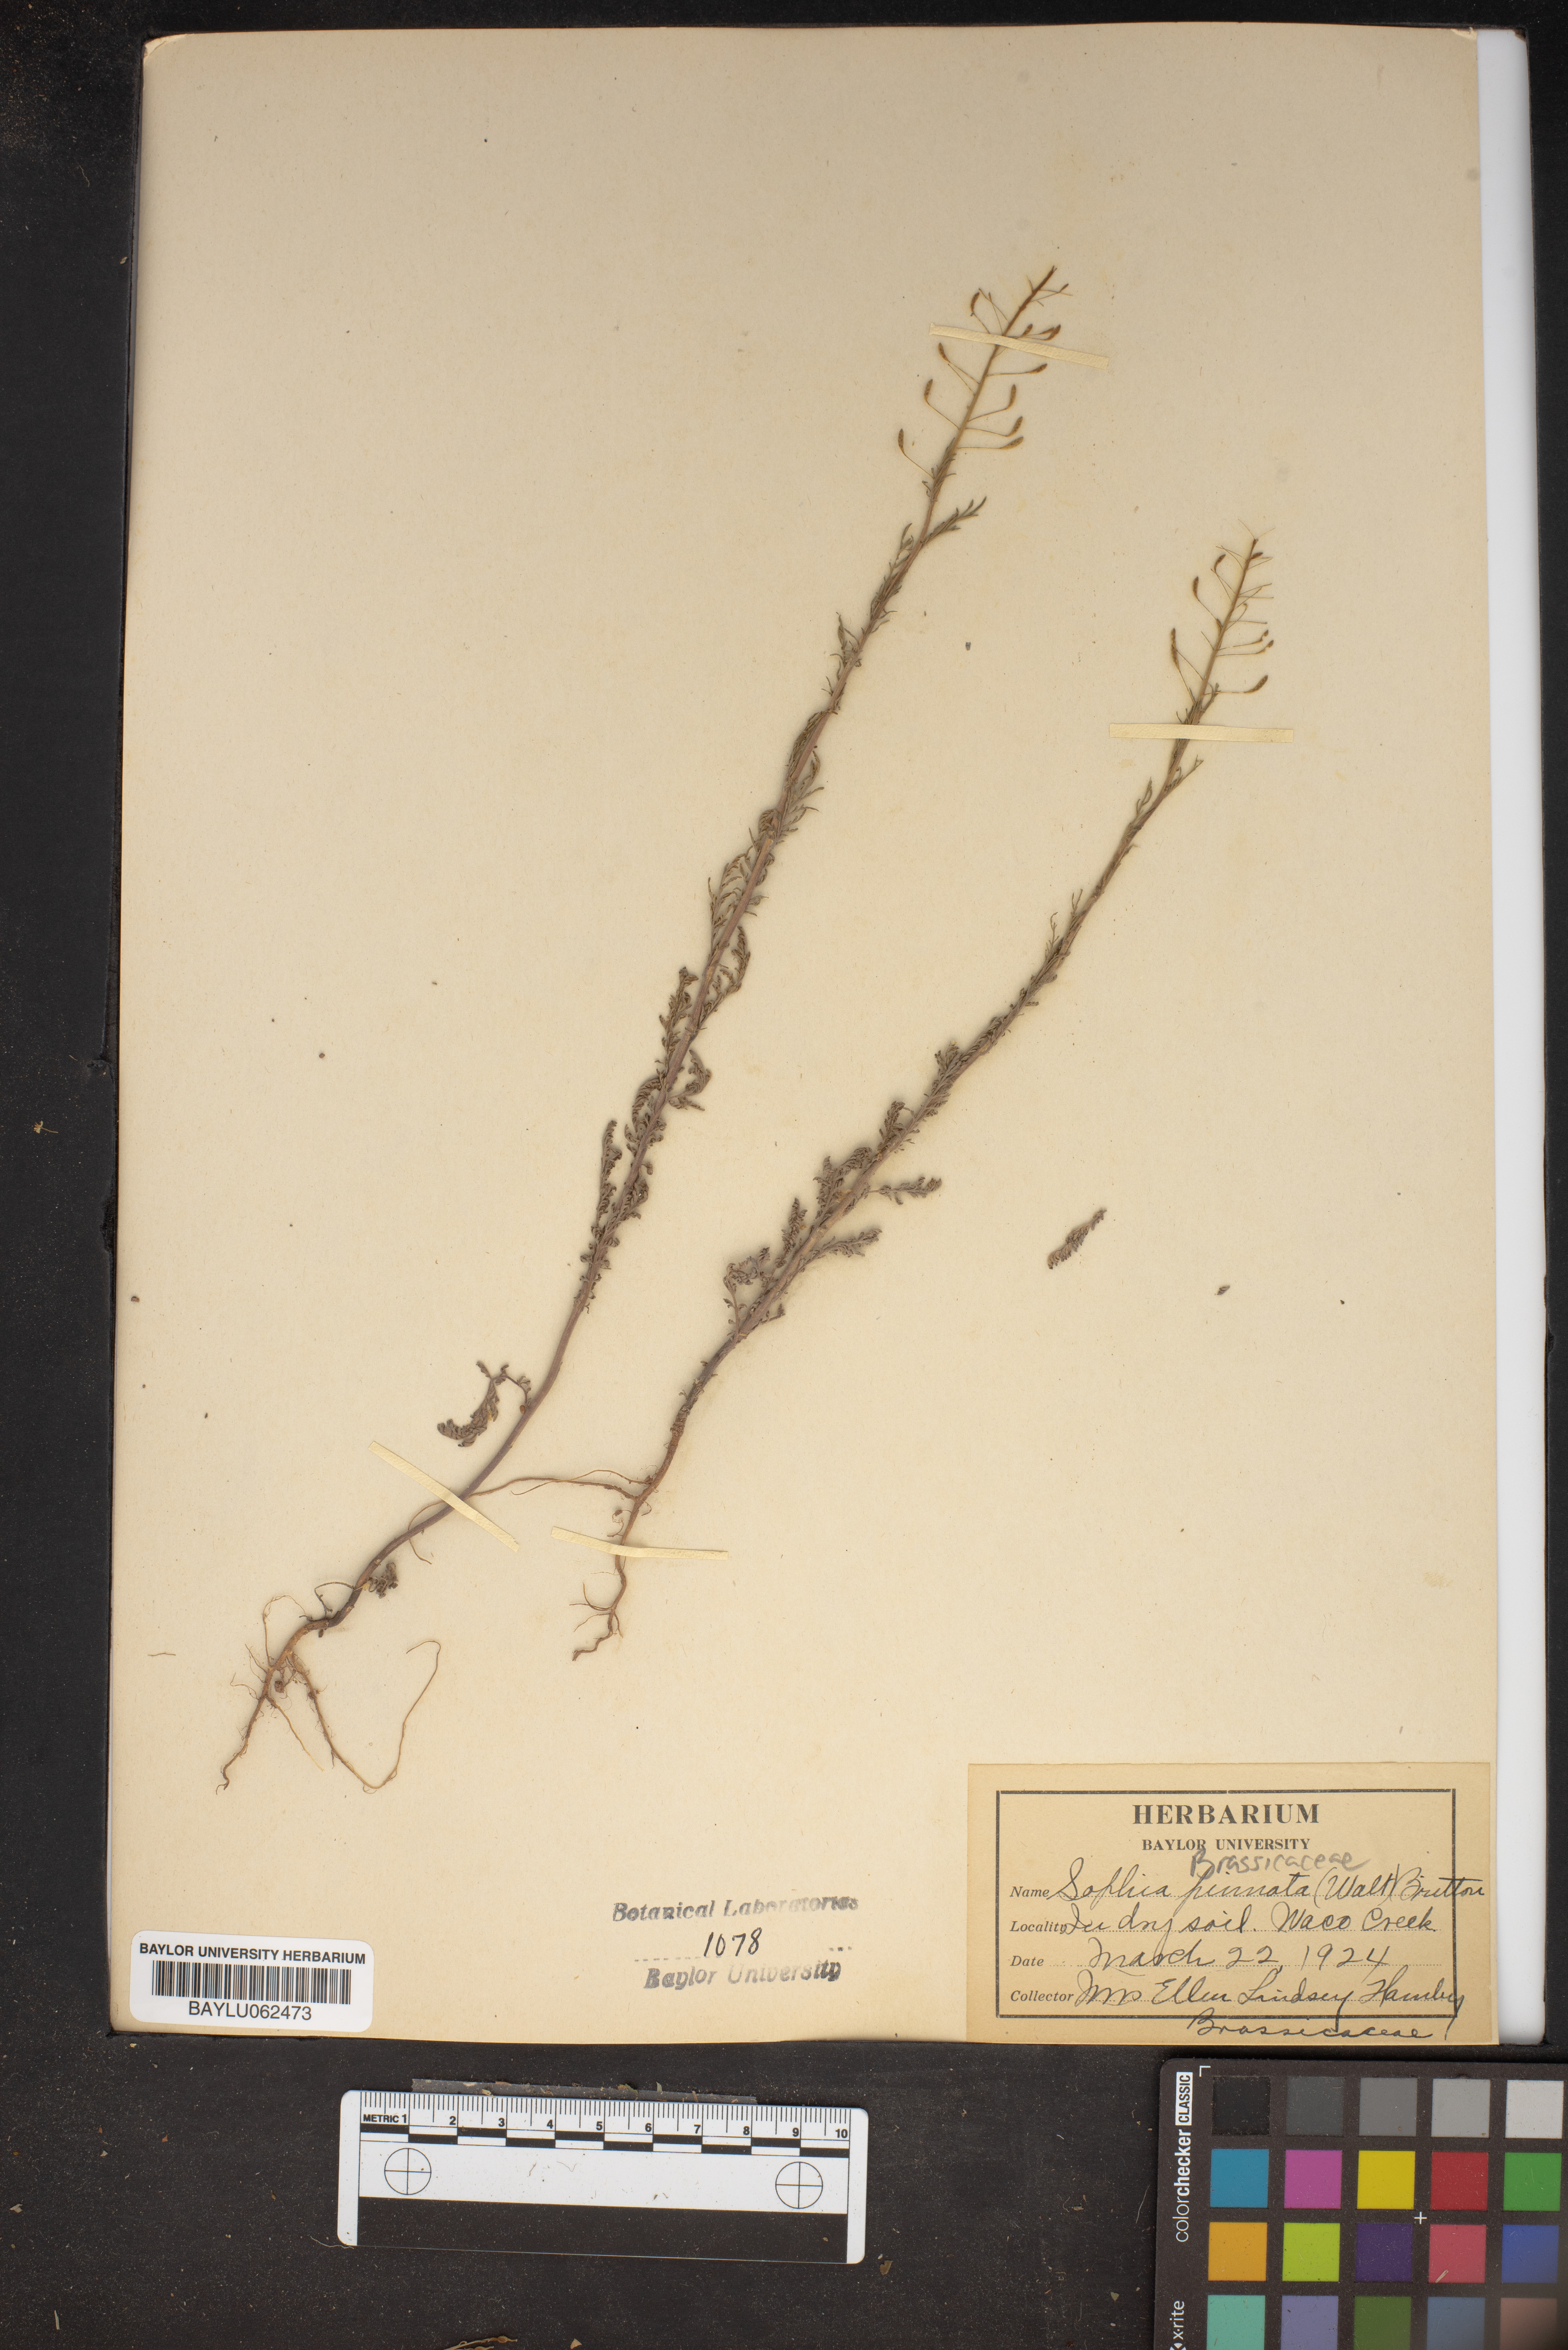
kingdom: Plantae
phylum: Tracheophyta
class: Magnoliopsida
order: Brassicales
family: Brassicaceae
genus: Descurainia
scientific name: Descurainia pinnata
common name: Western tansy mustard
